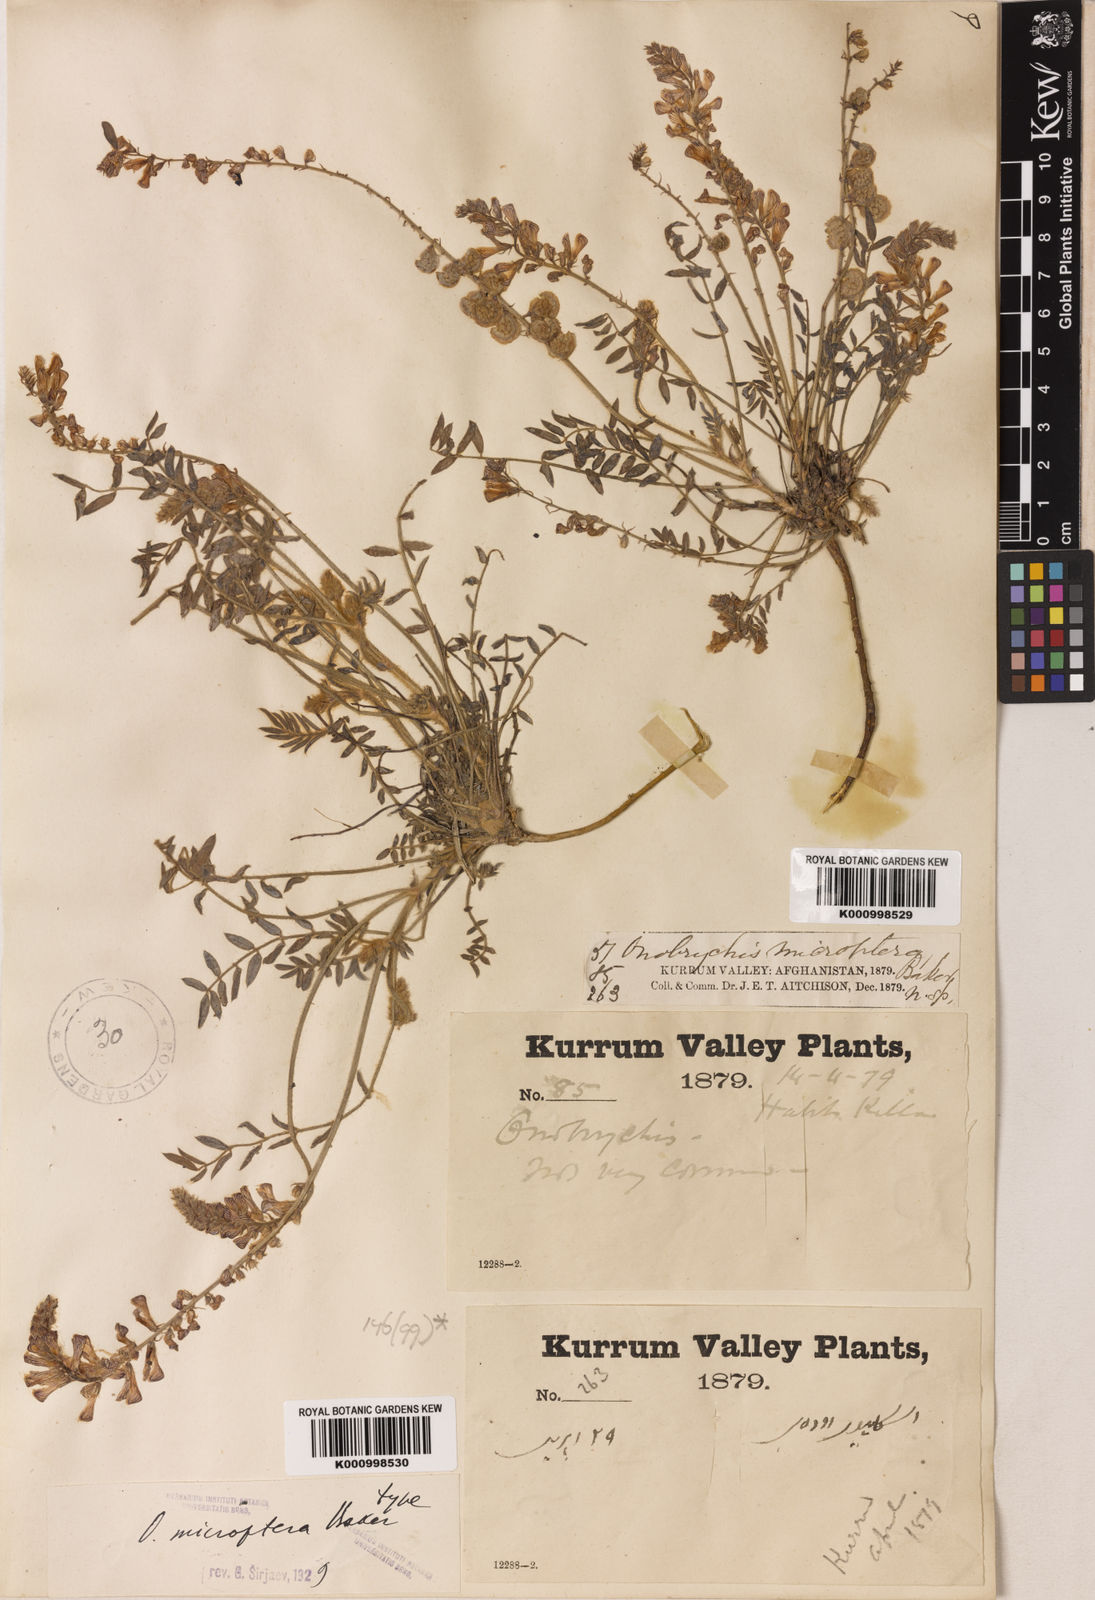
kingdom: Plantae
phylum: Tracheophyta
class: Magnoliopsida
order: Fabales
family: Fabaceae
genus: Onobrychis
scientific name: Onobrychis microptera
